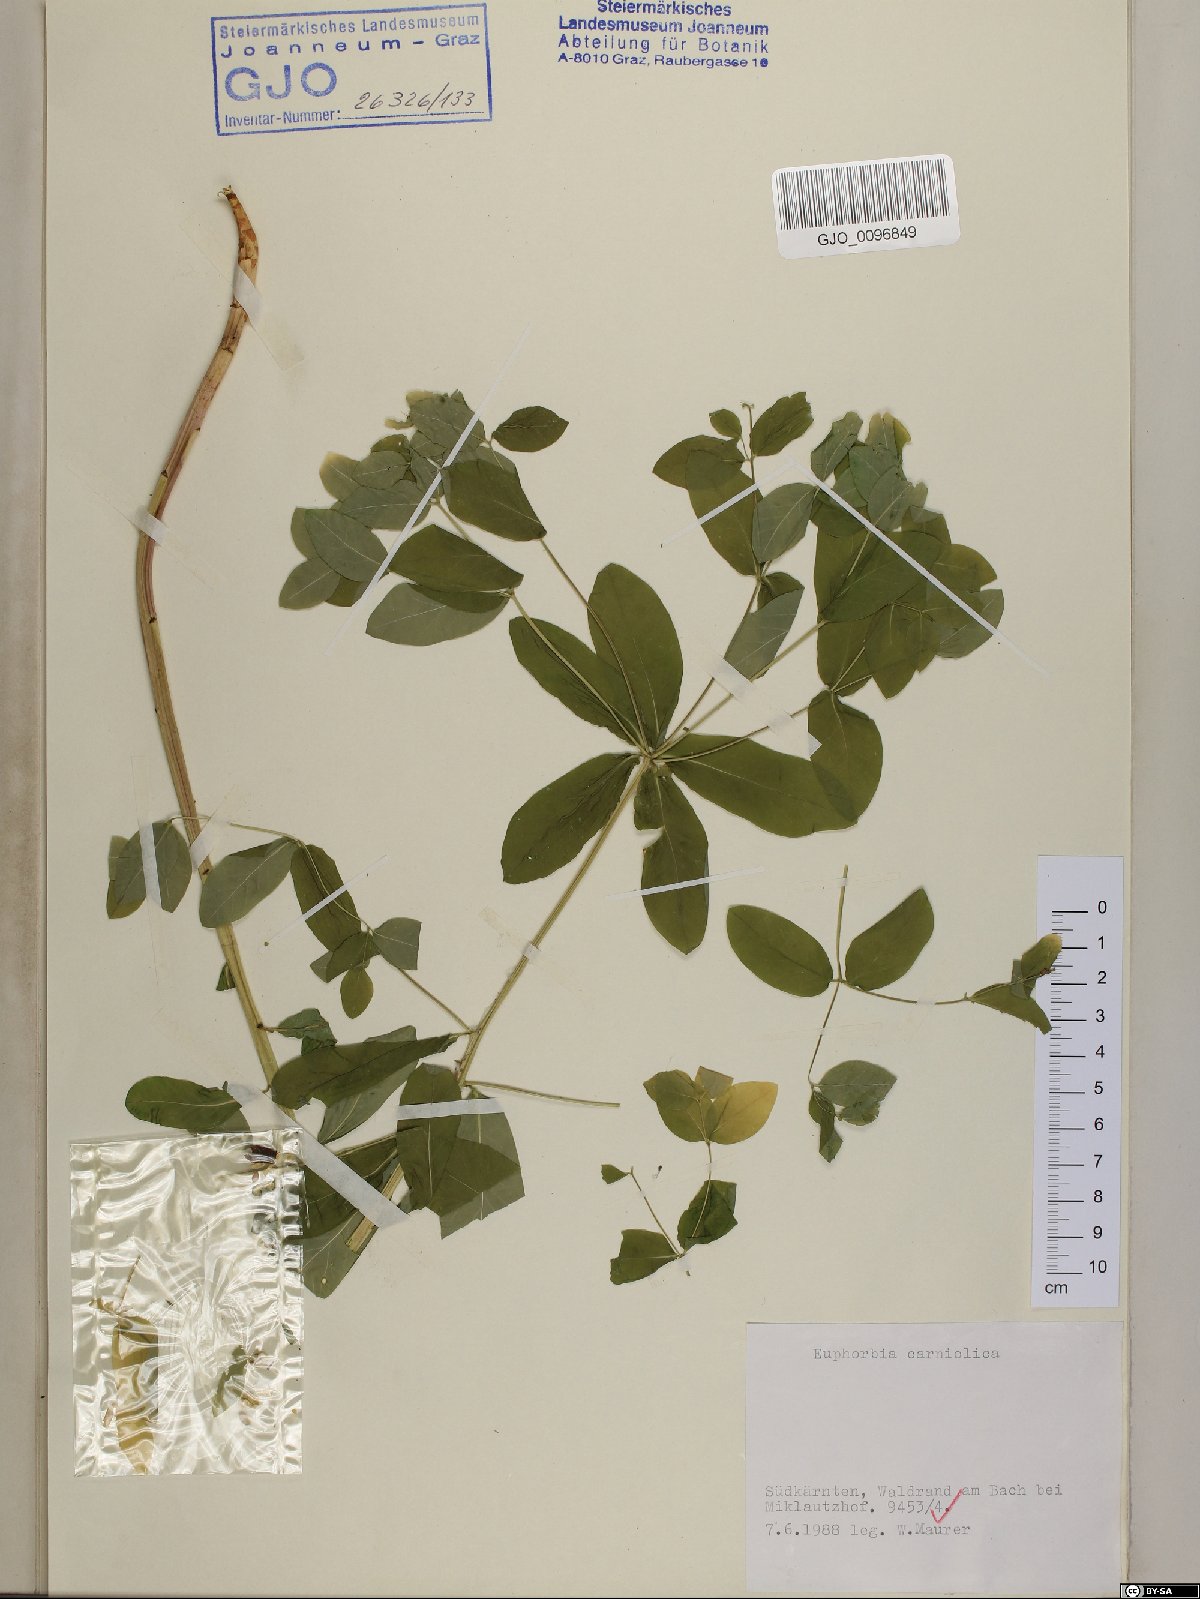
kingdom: Plantae
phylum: Tracheophyta
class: Magnoliopsida
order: Malpighiales
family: Euphorbiaceae
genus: Euphorbia
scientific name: Euphorbia carniolica
